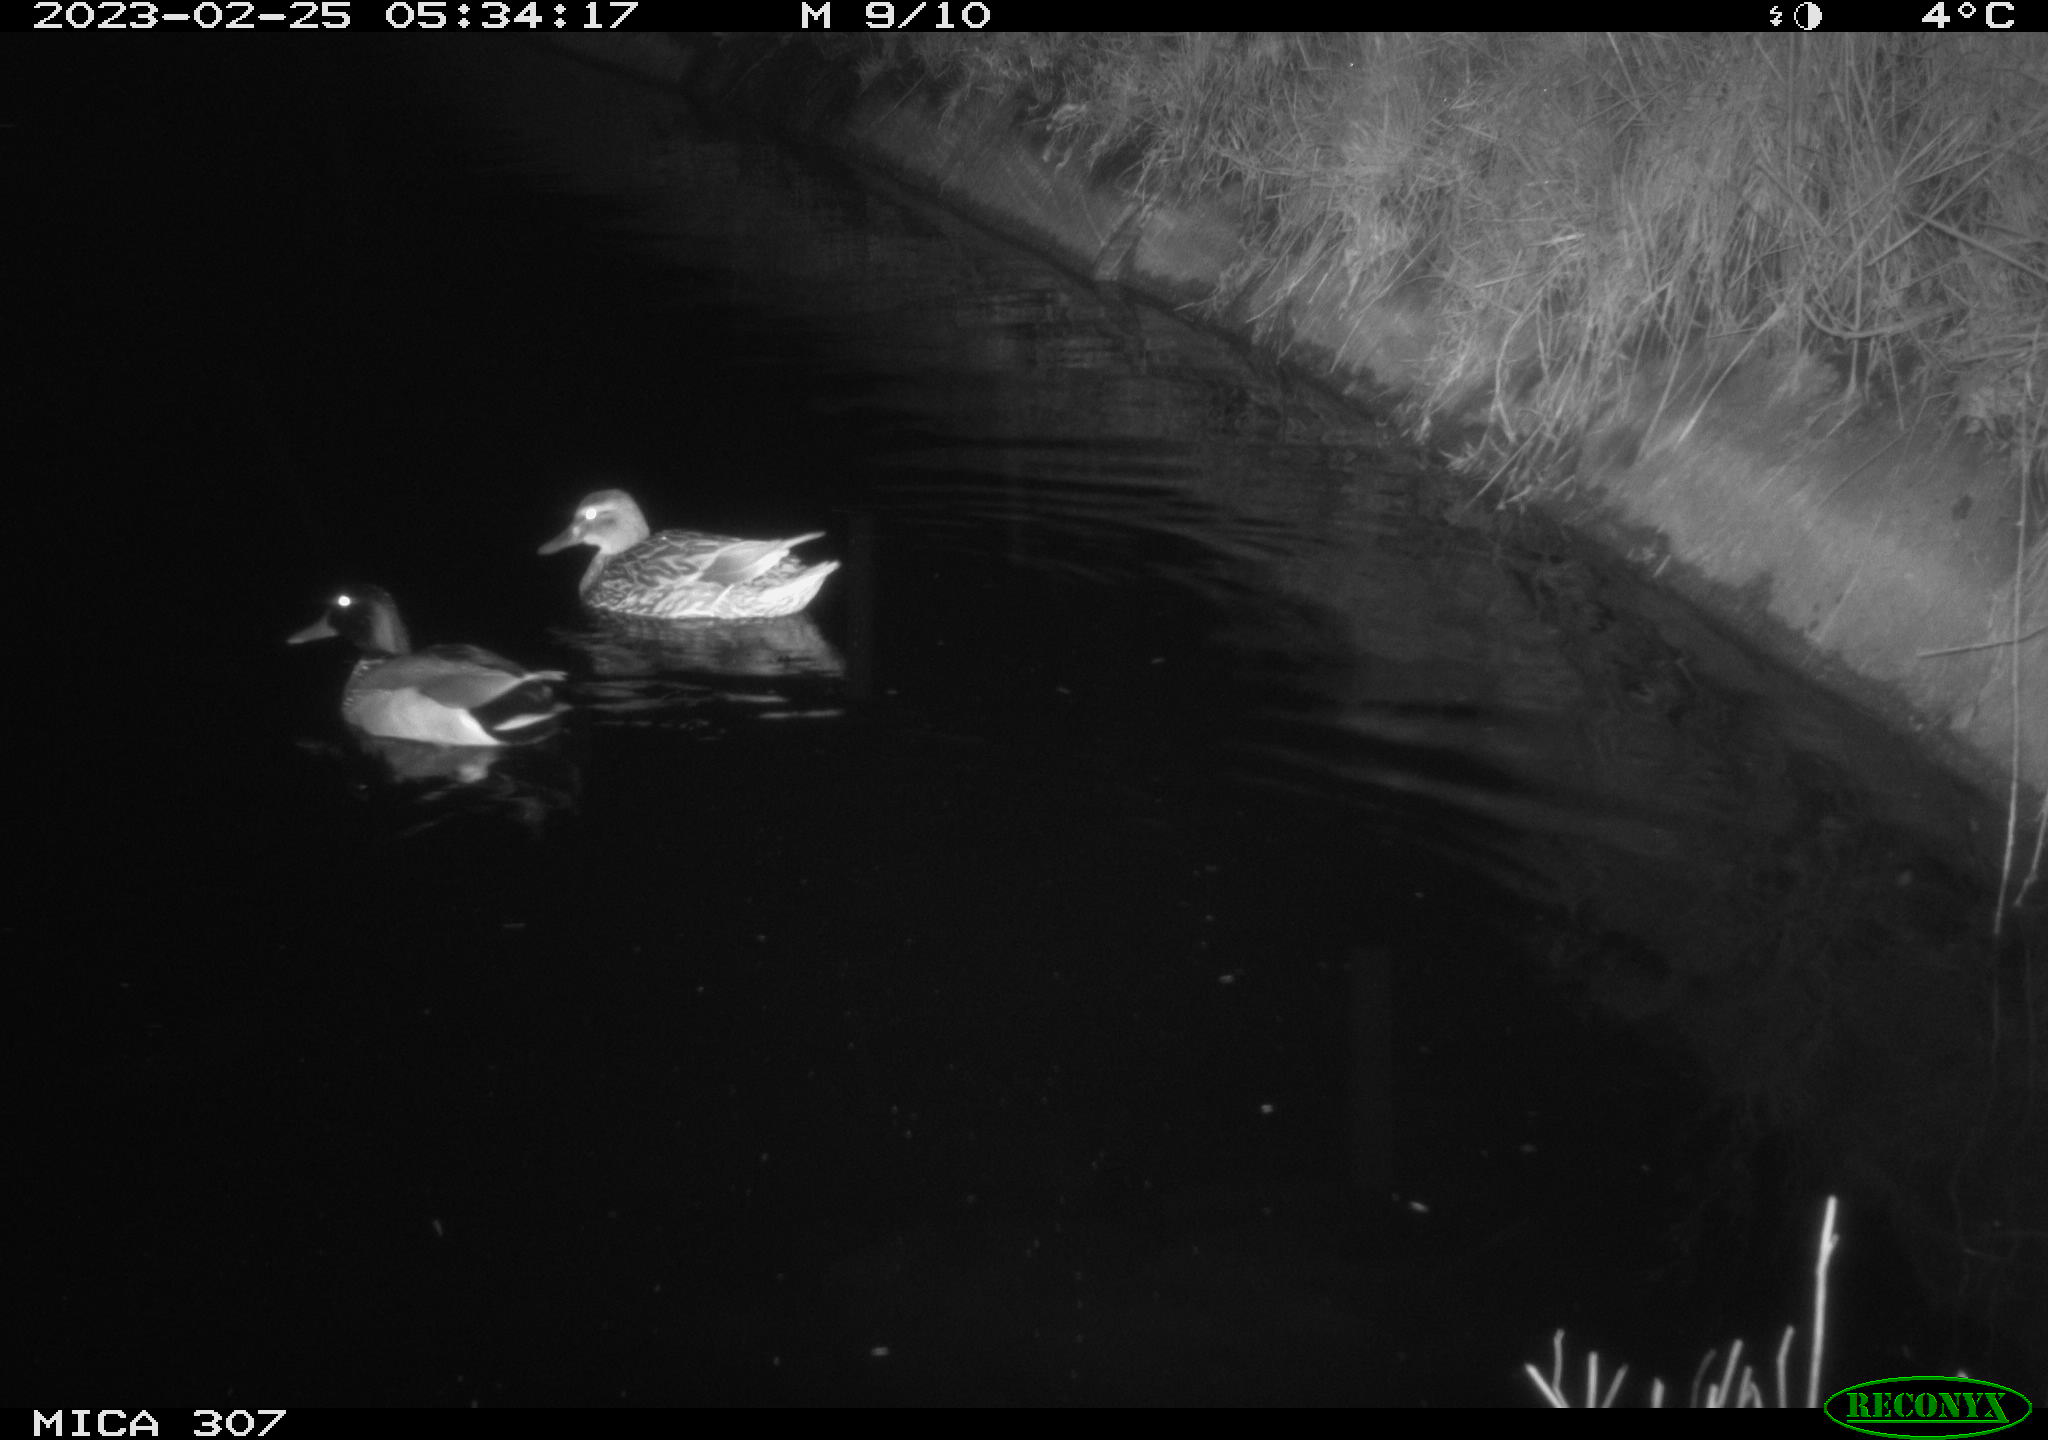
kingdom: Animalia
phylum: Chordata
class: Aves
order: Anseriformes
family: Anatidae
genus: Anas
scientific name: Anas
